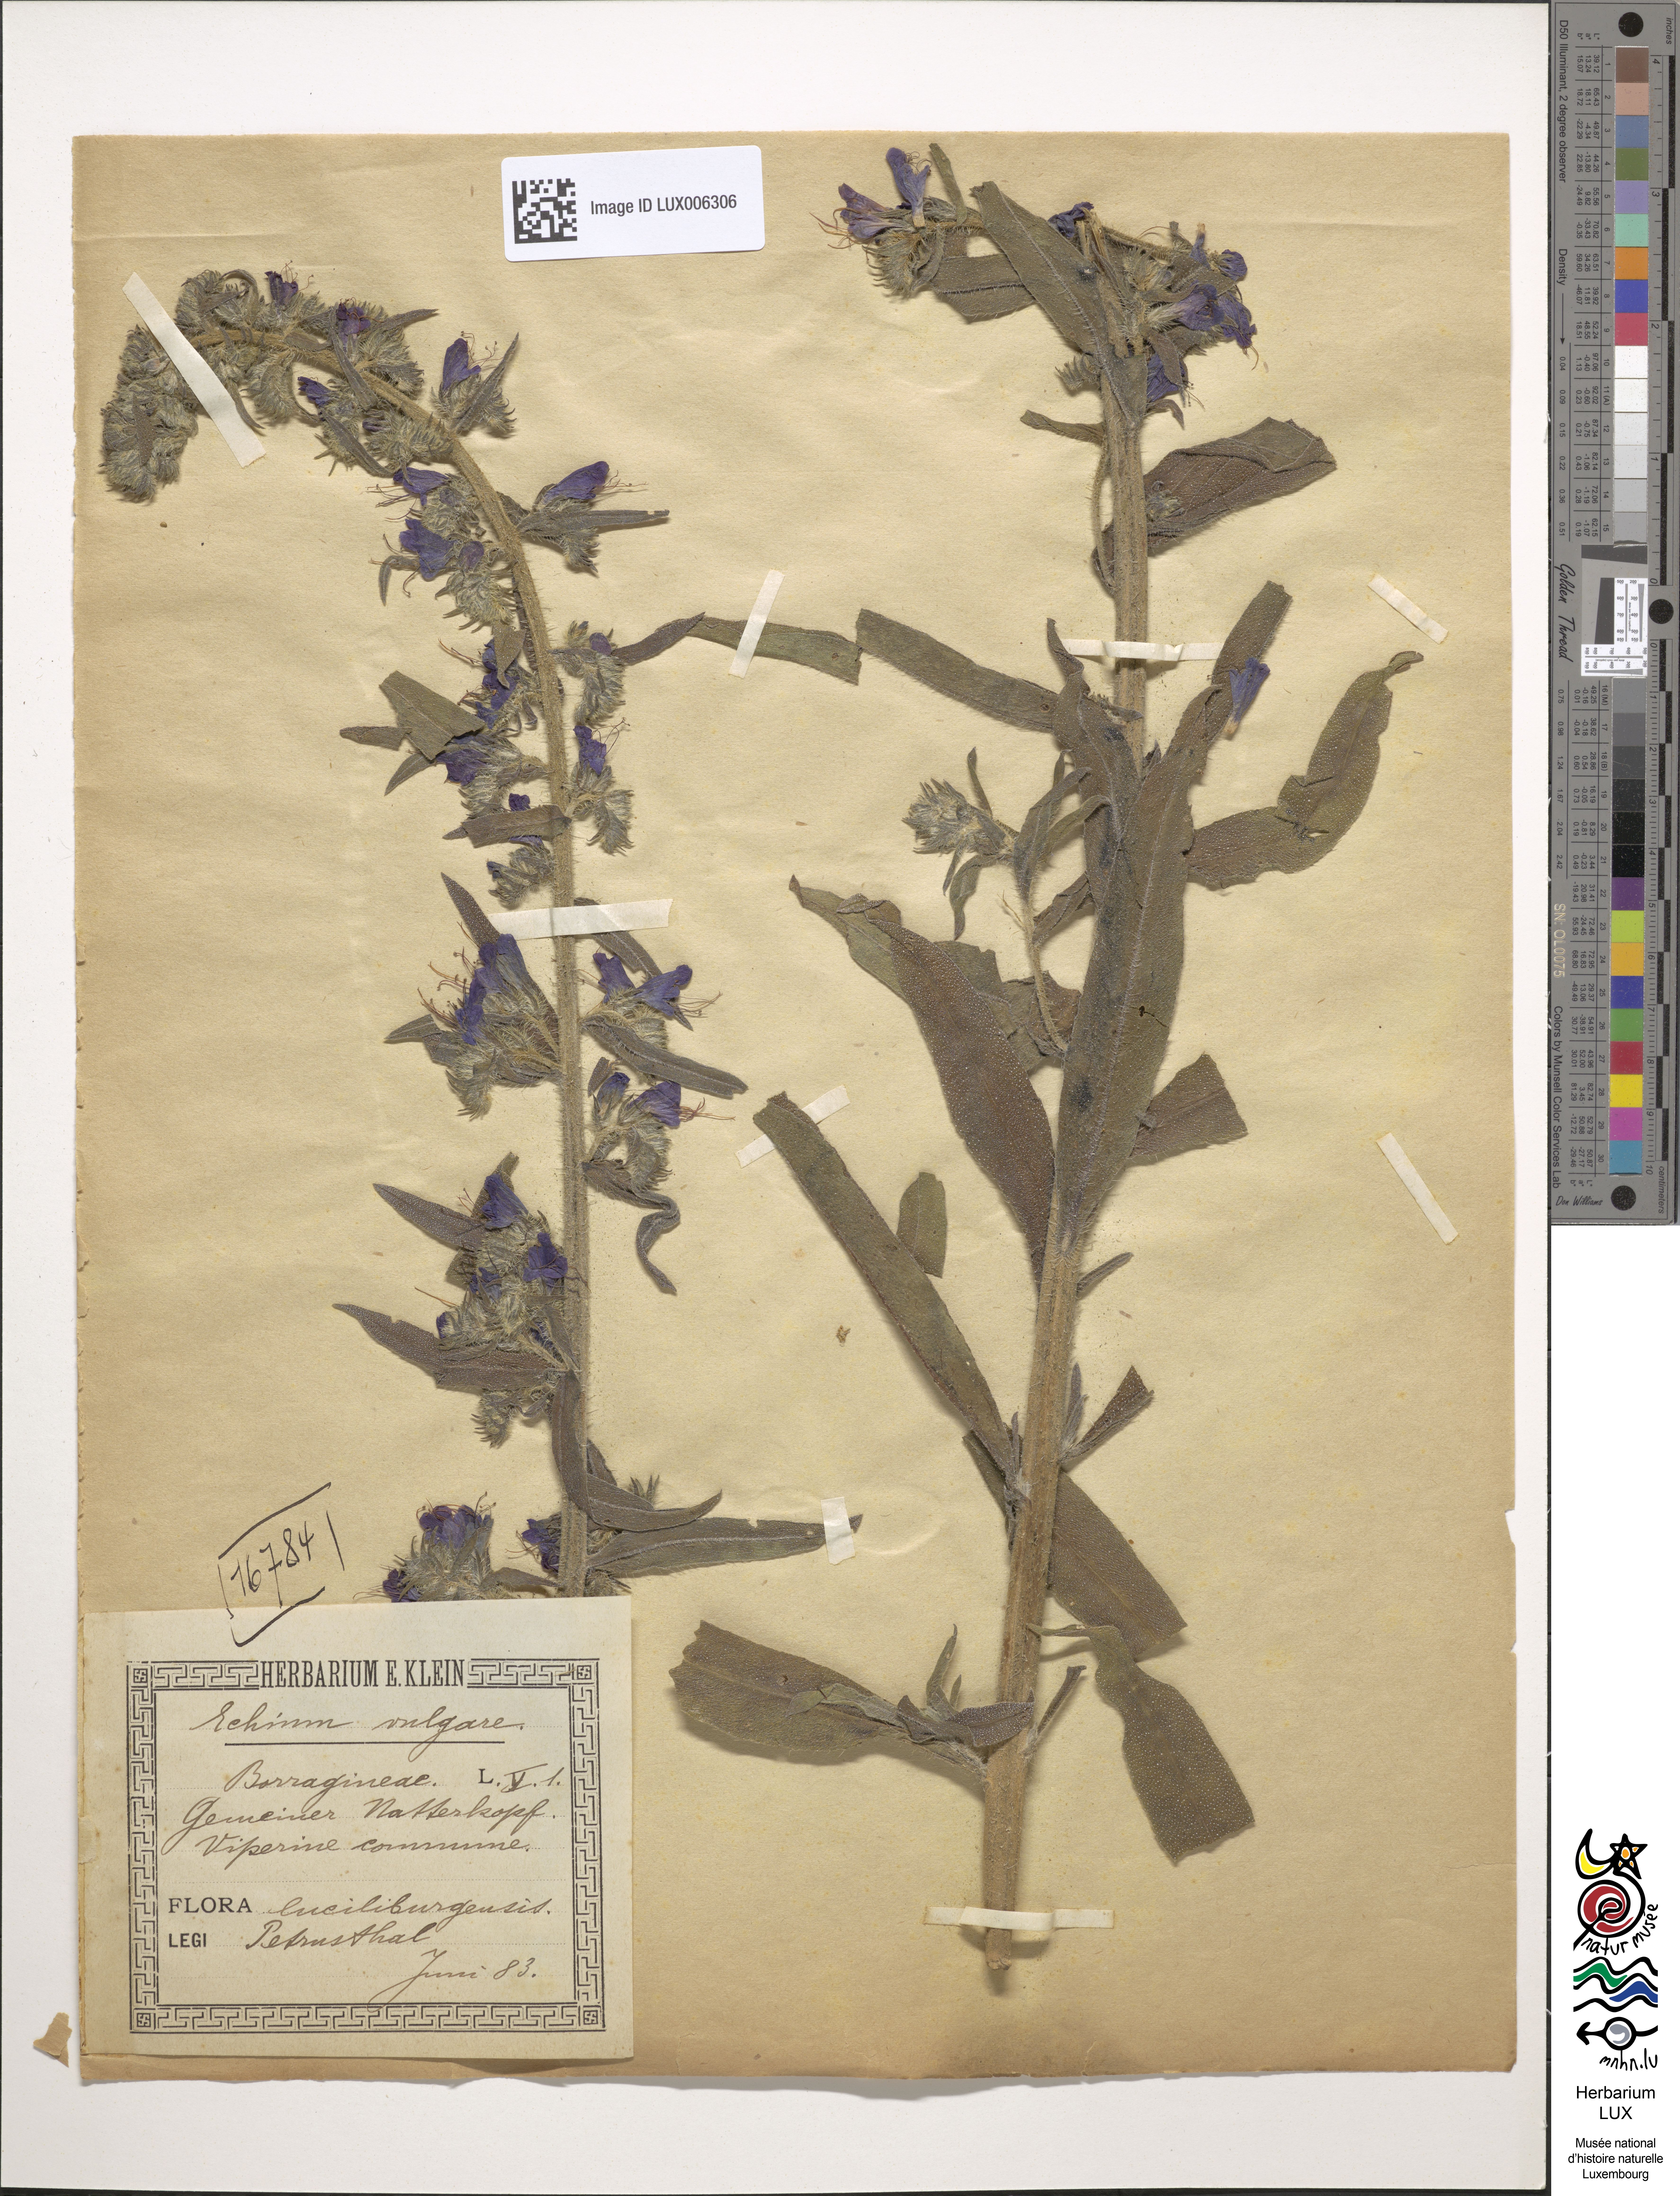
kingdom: Plantae
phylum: Tracheophyta
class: Magnoliopsida
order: Boraginales
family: Boraginaceae
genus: Echium
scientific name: Echium vulgare
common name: Common viper's bugloss
